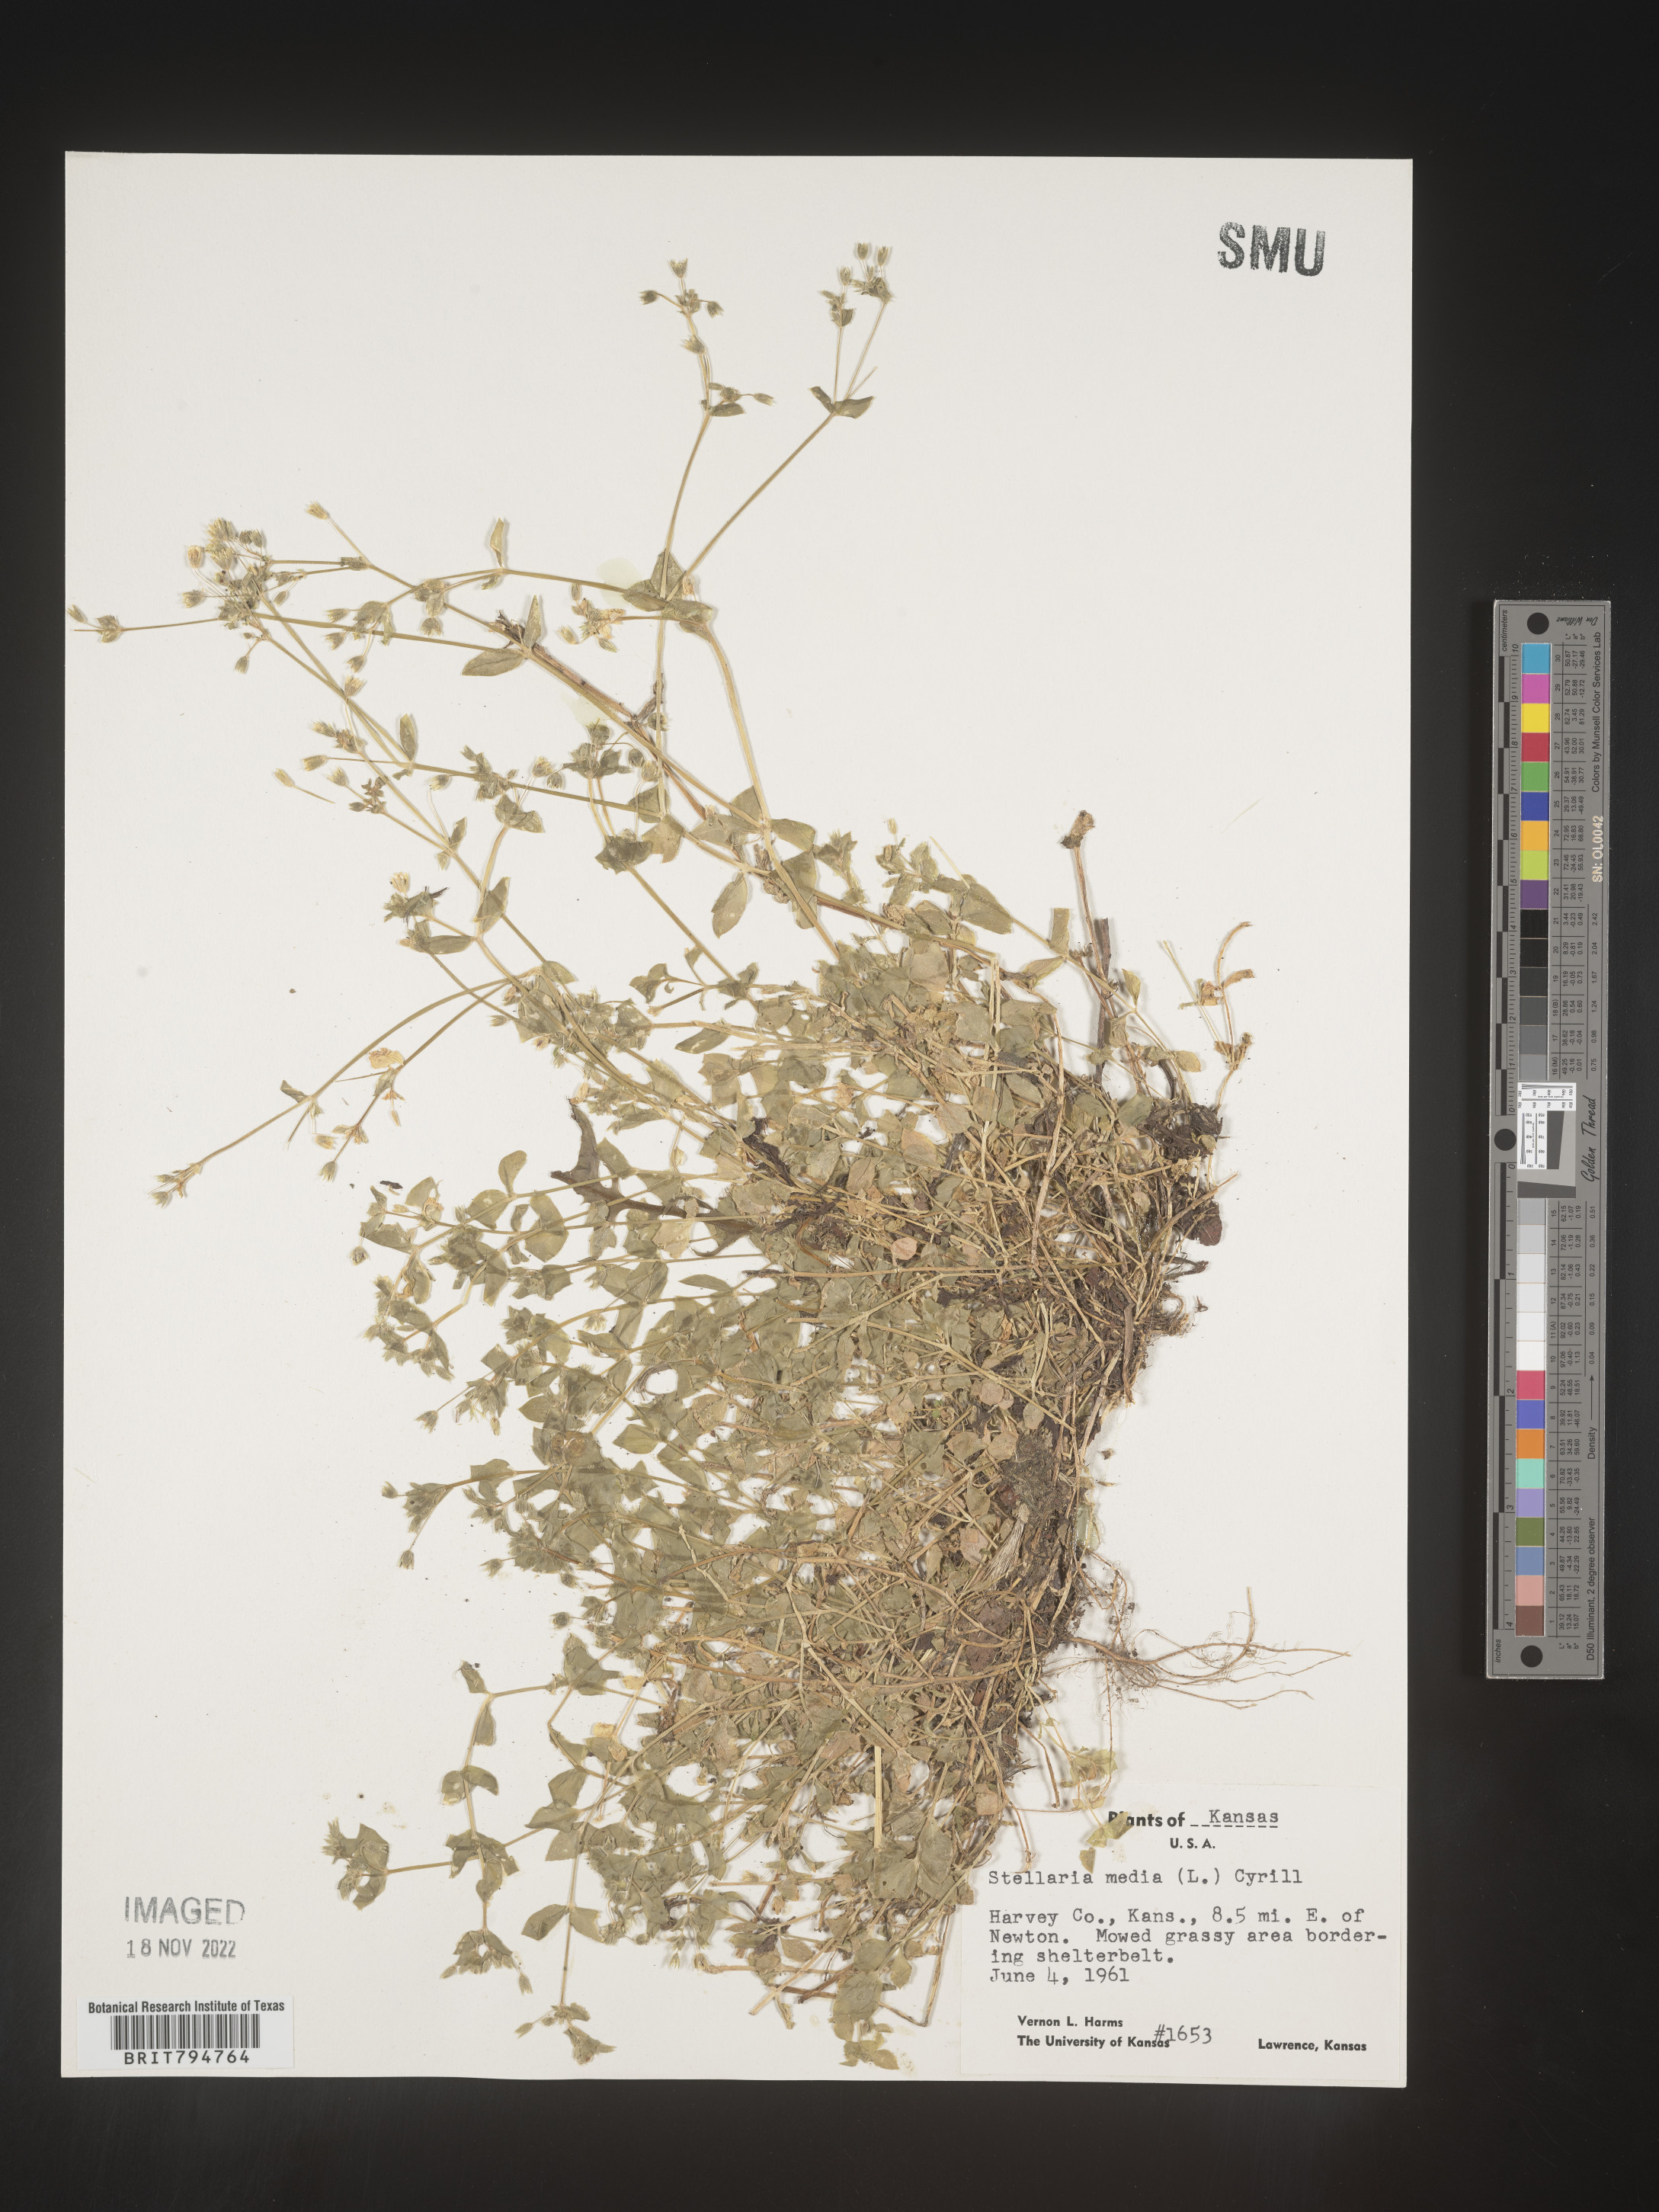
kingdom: Plantae
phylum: Tracheophyta
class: Magnoliopsida
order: Caryophyllales
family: Caryophyllaceae
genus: Stellaria
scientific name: Stellaria media
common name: Common chickweed
